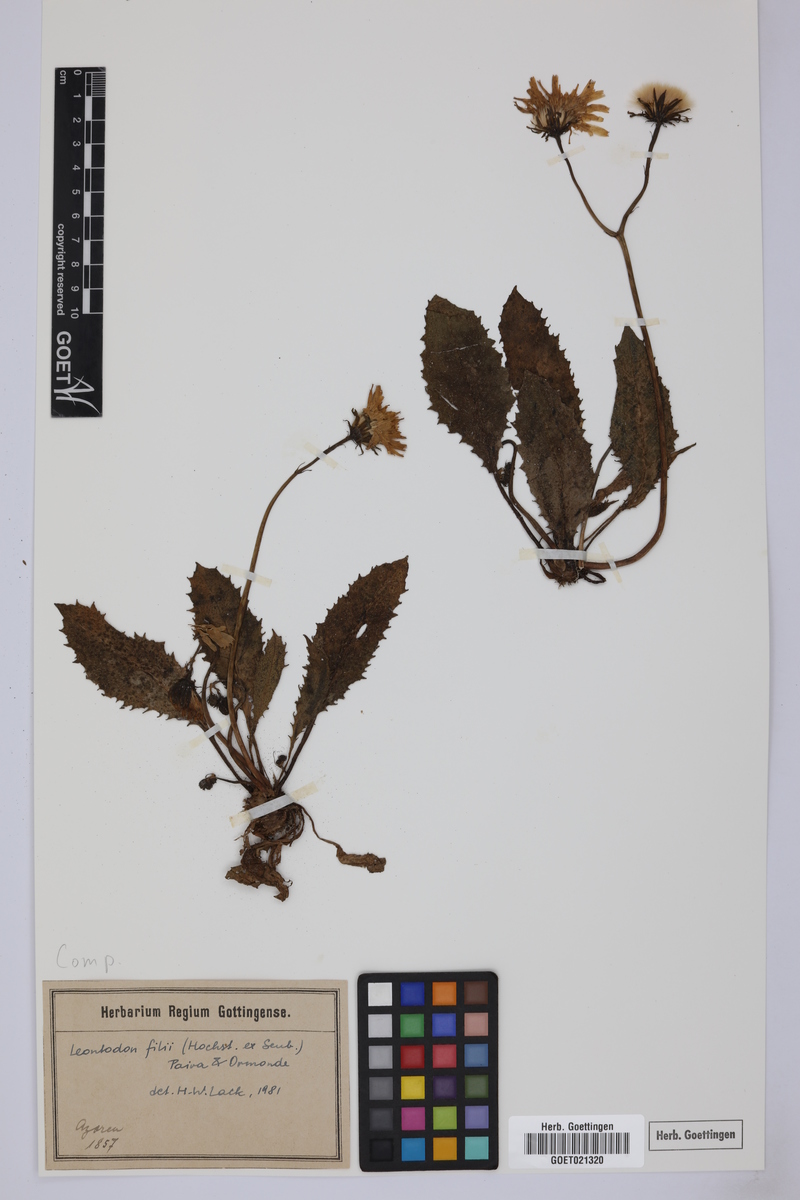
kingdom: Plantae
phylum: Tracheophyta
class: Magnoliopsida
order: Asterales
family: Asteraceae
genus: Leontodon
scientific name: Leontodon filii
